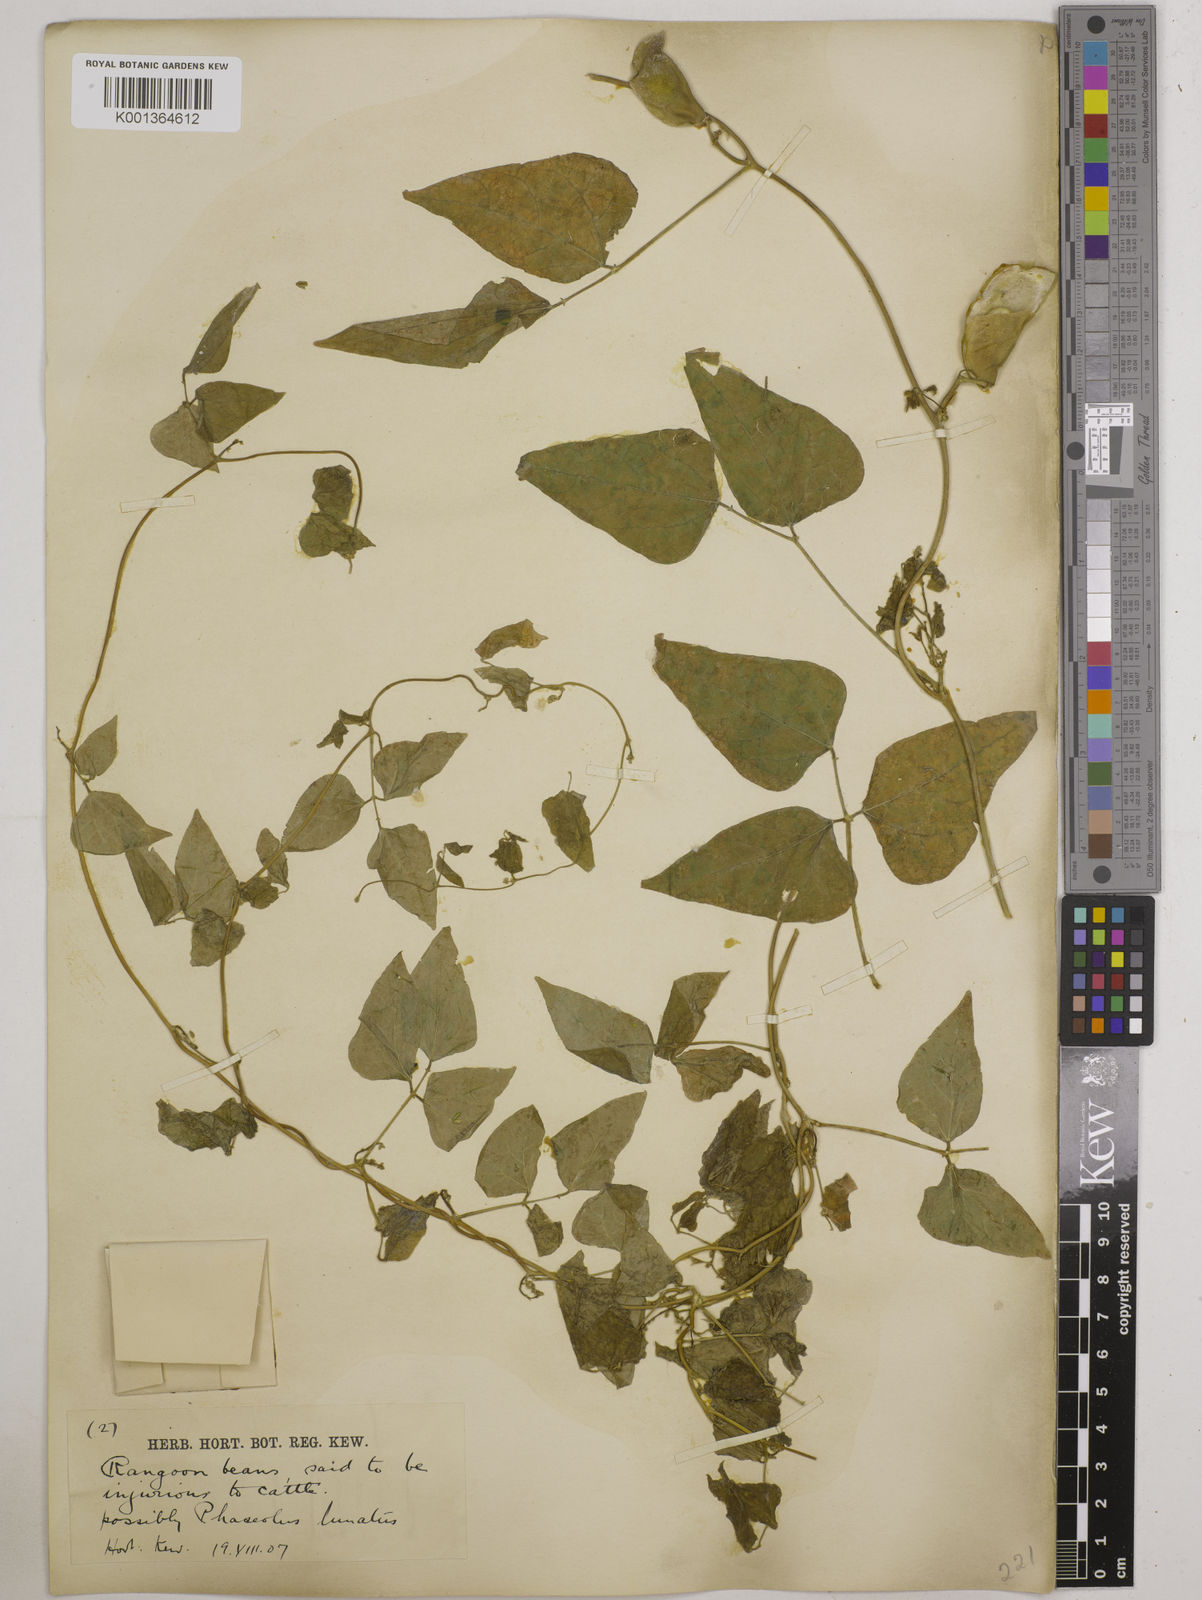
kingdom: Plantae
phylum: Tracheophyta
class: Magnoliopsida
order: Fabales
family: Fabaceae
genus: Phaseolus
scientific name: Phaseolus lunatus
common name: Sieva bean
